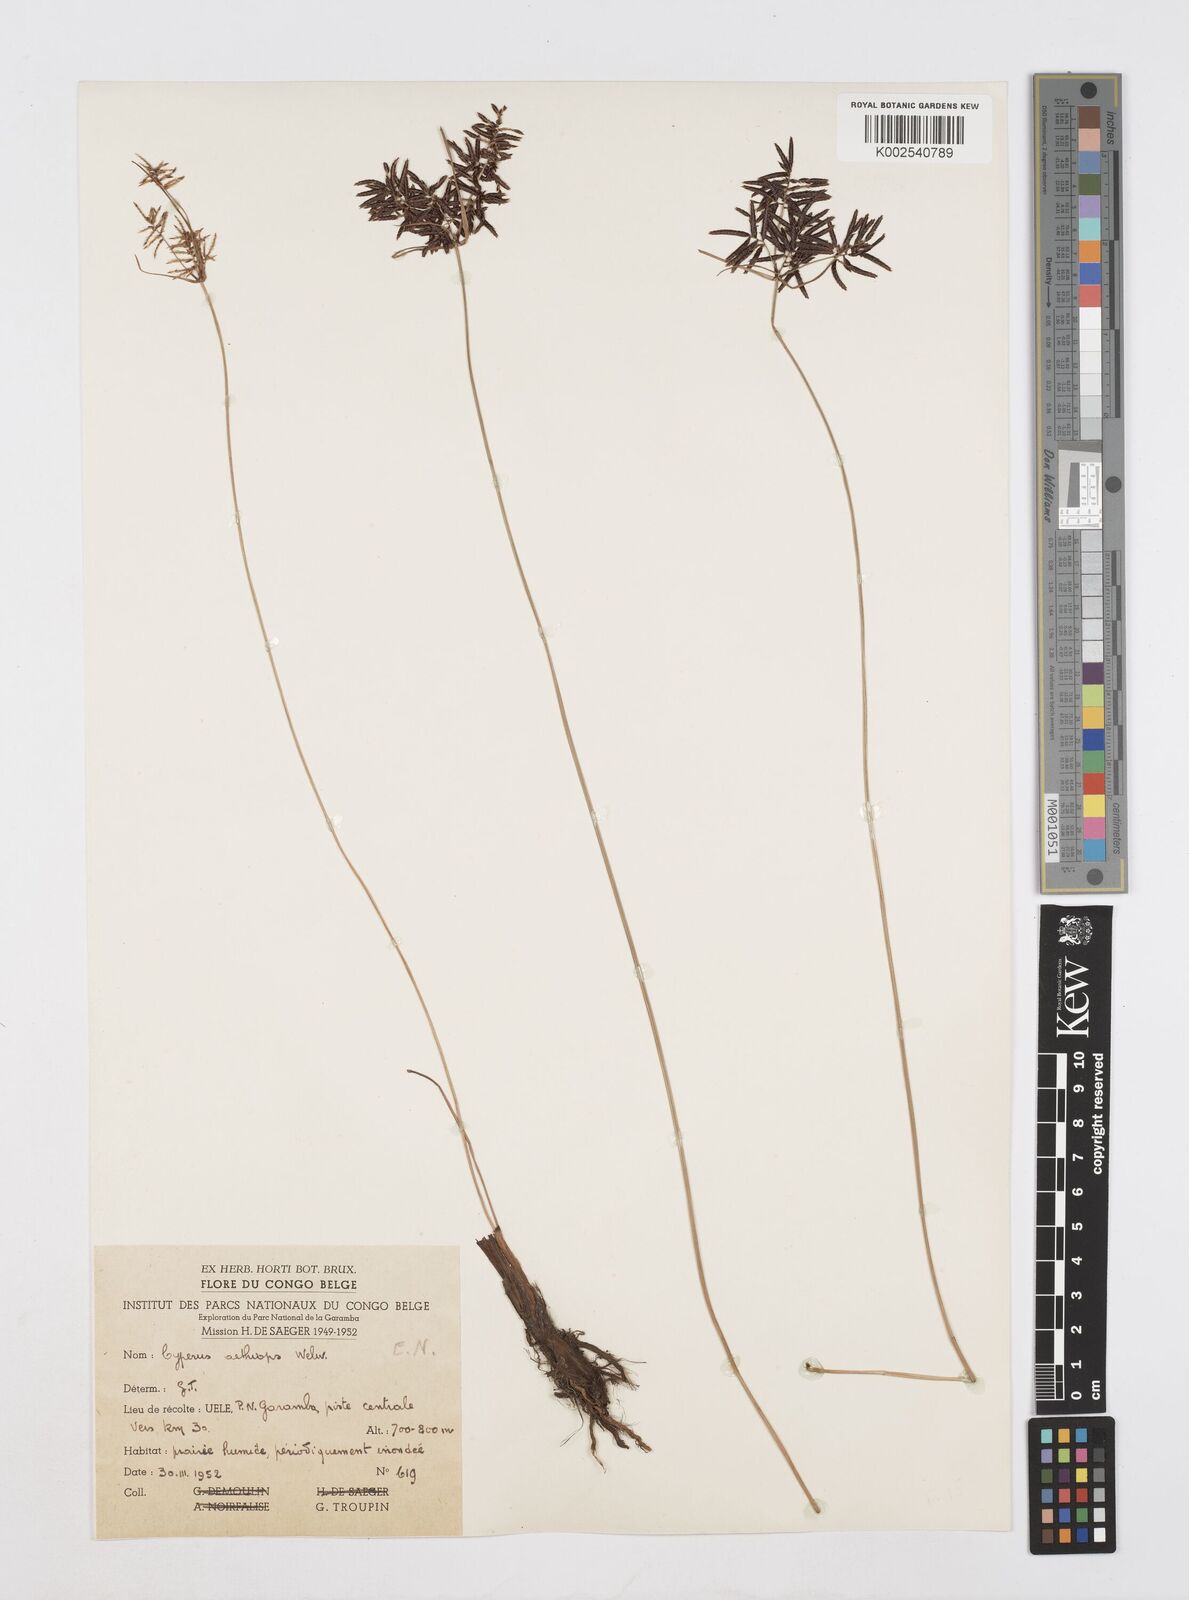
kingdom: Plantae
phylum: Tracheophyta
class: Liliopsida
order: Poales
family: Cyperaceae
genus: Cyperus
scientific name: Cyperus aethiops
